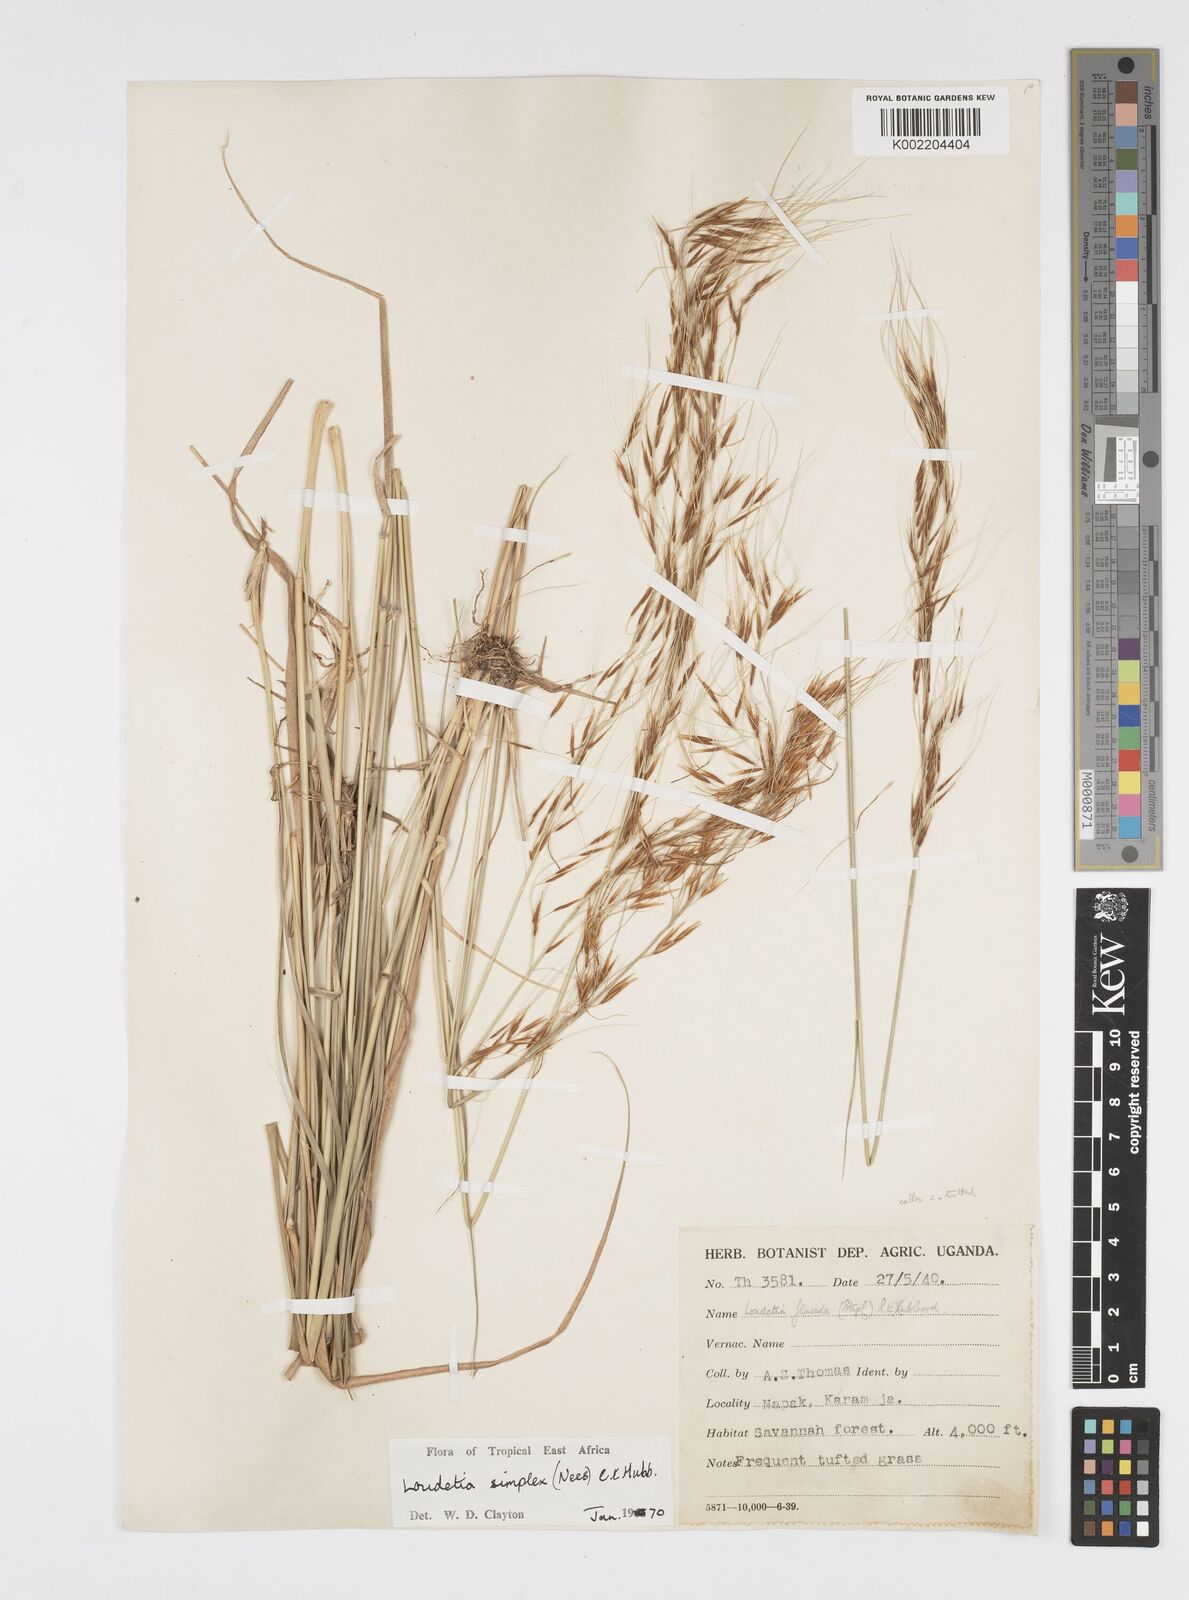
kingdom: Plantae
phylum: Tracheophyta
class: Liliopsida
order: Poales
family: Poaceae
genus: Loudetia
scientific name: Loudetia simplex
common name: Common russet grass
